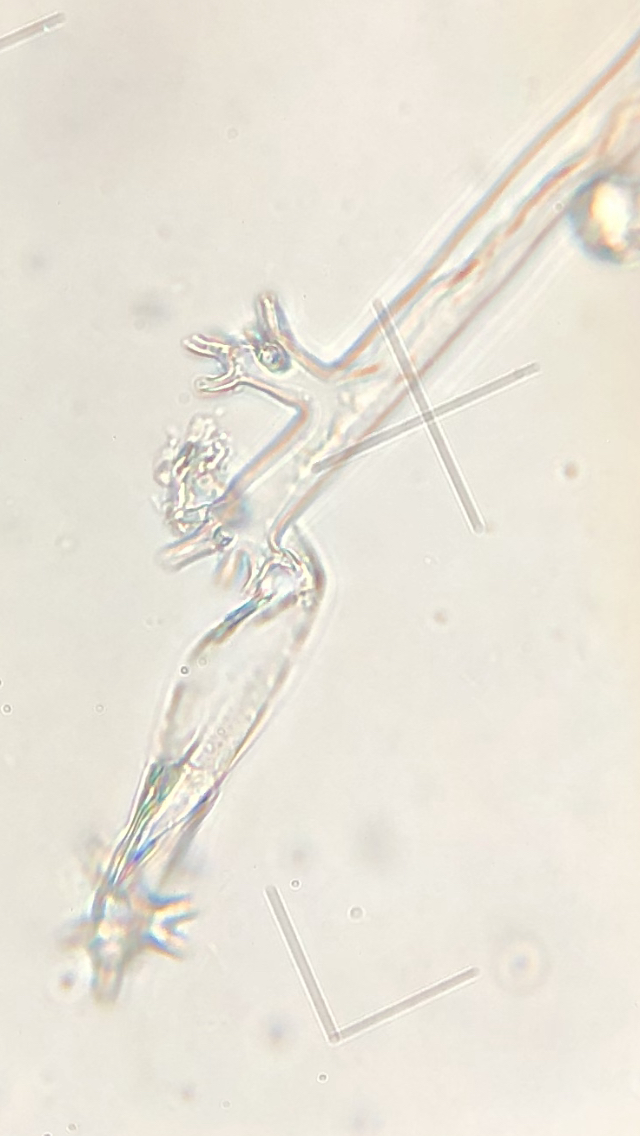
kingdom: Chromista
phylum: Oomycota
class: Peronosporea
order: Peronosporales
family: Peronosporaceae
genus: Plasmoverna
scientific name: Plasmoverna anemones-ranunculoidis
